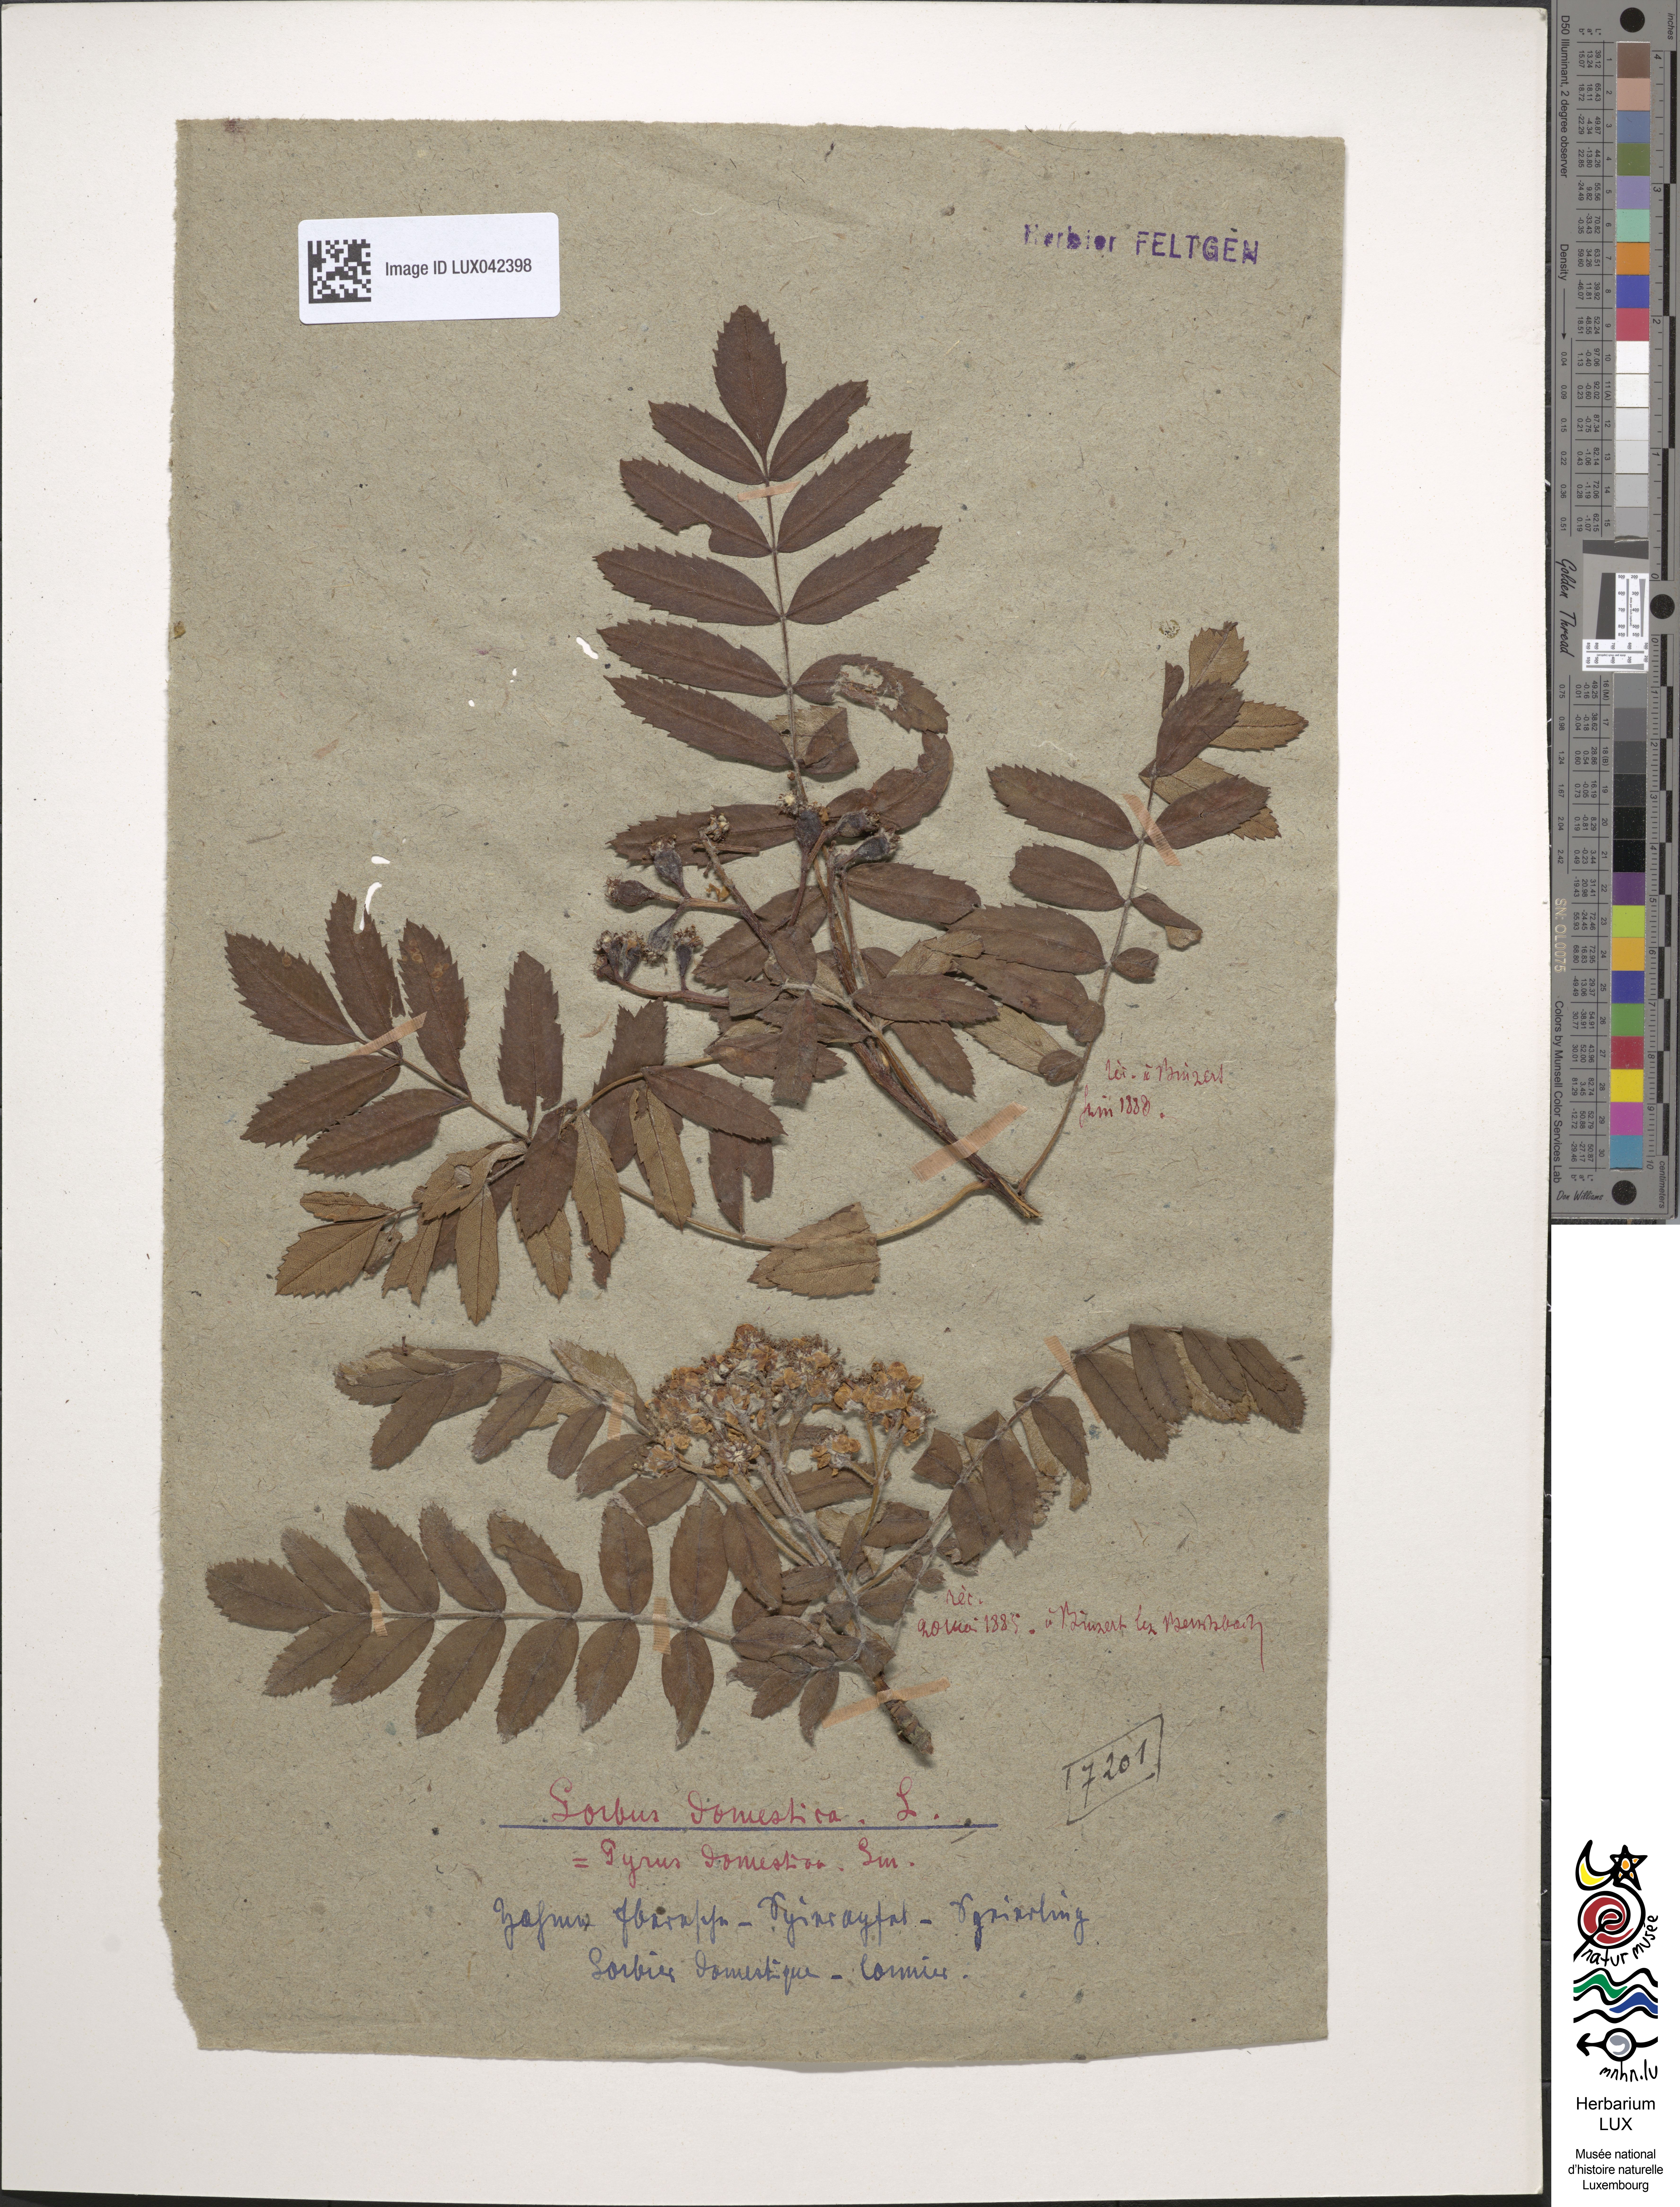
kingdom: Plantae
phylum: Tracheophyta
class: Magnoliopsida
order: Rosales
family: Rosaceae
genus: Cormus
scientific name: Cormus domestica
